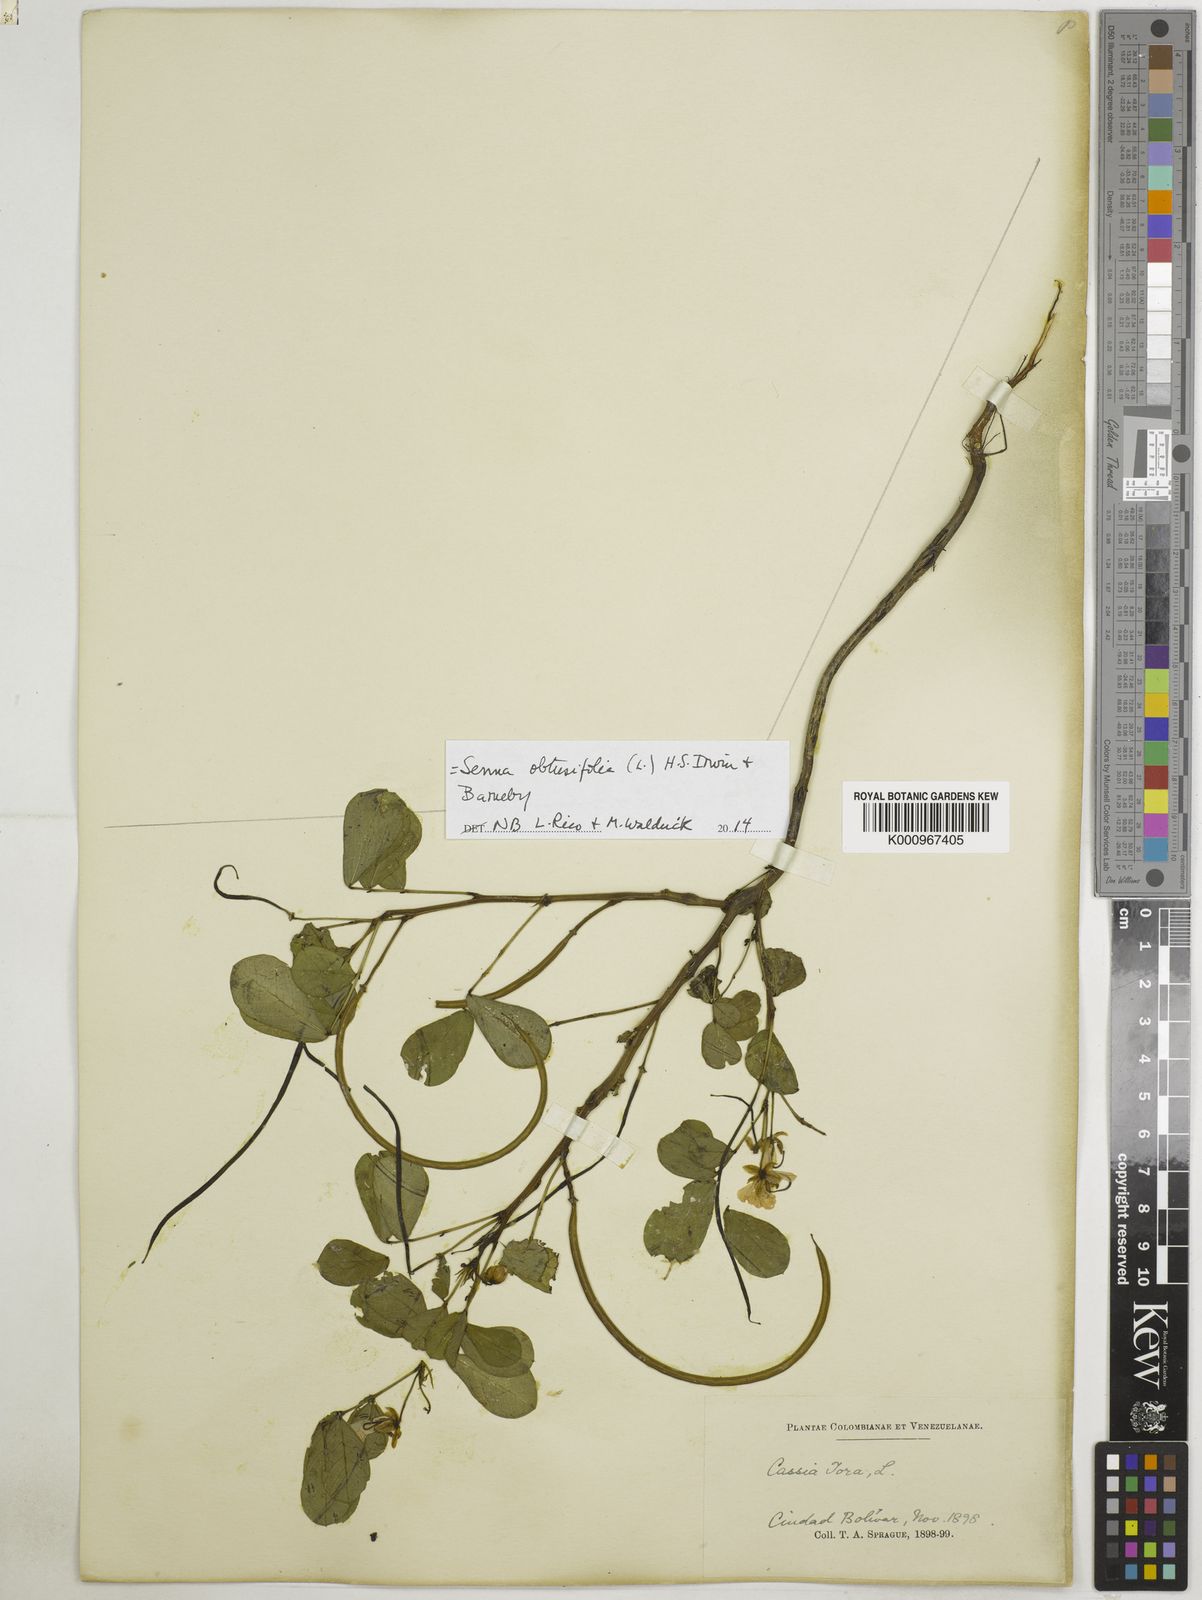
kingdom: Plantae
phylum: Tracheophyta
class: Magnoliopsida
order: Fabales
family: Fabaceae
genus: Senna
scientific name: Senna obtusifolia
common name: Java-bean
